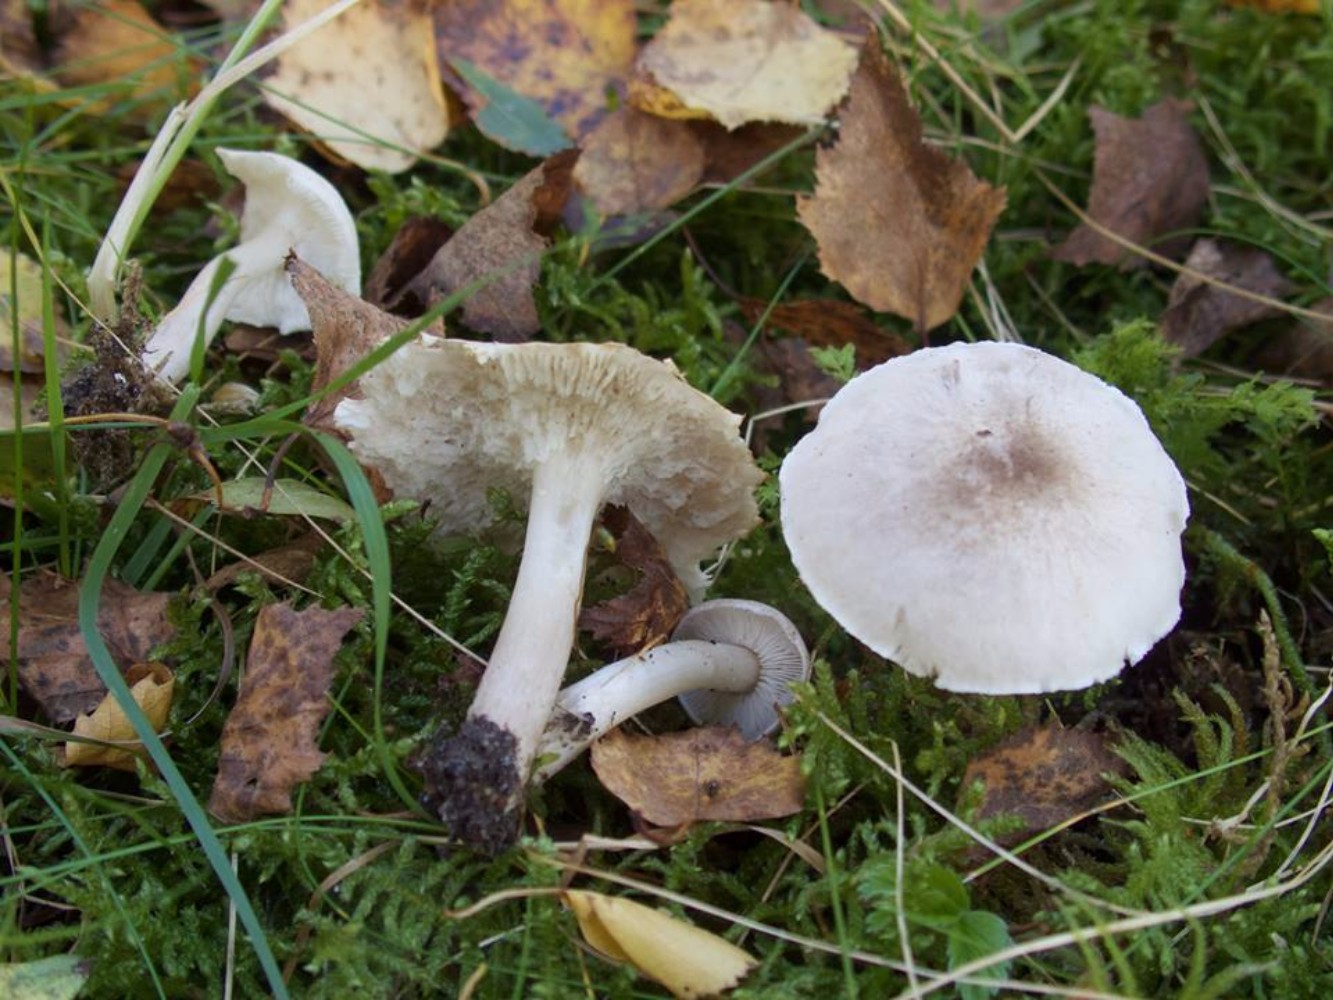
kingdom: Fungi
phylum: Basidiomycota
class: Agaricomycetes
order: Agaricales
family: Tricholomataceae
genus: Tricholoma
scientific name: Tricholoma argyraceum
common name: spids ridderhat
